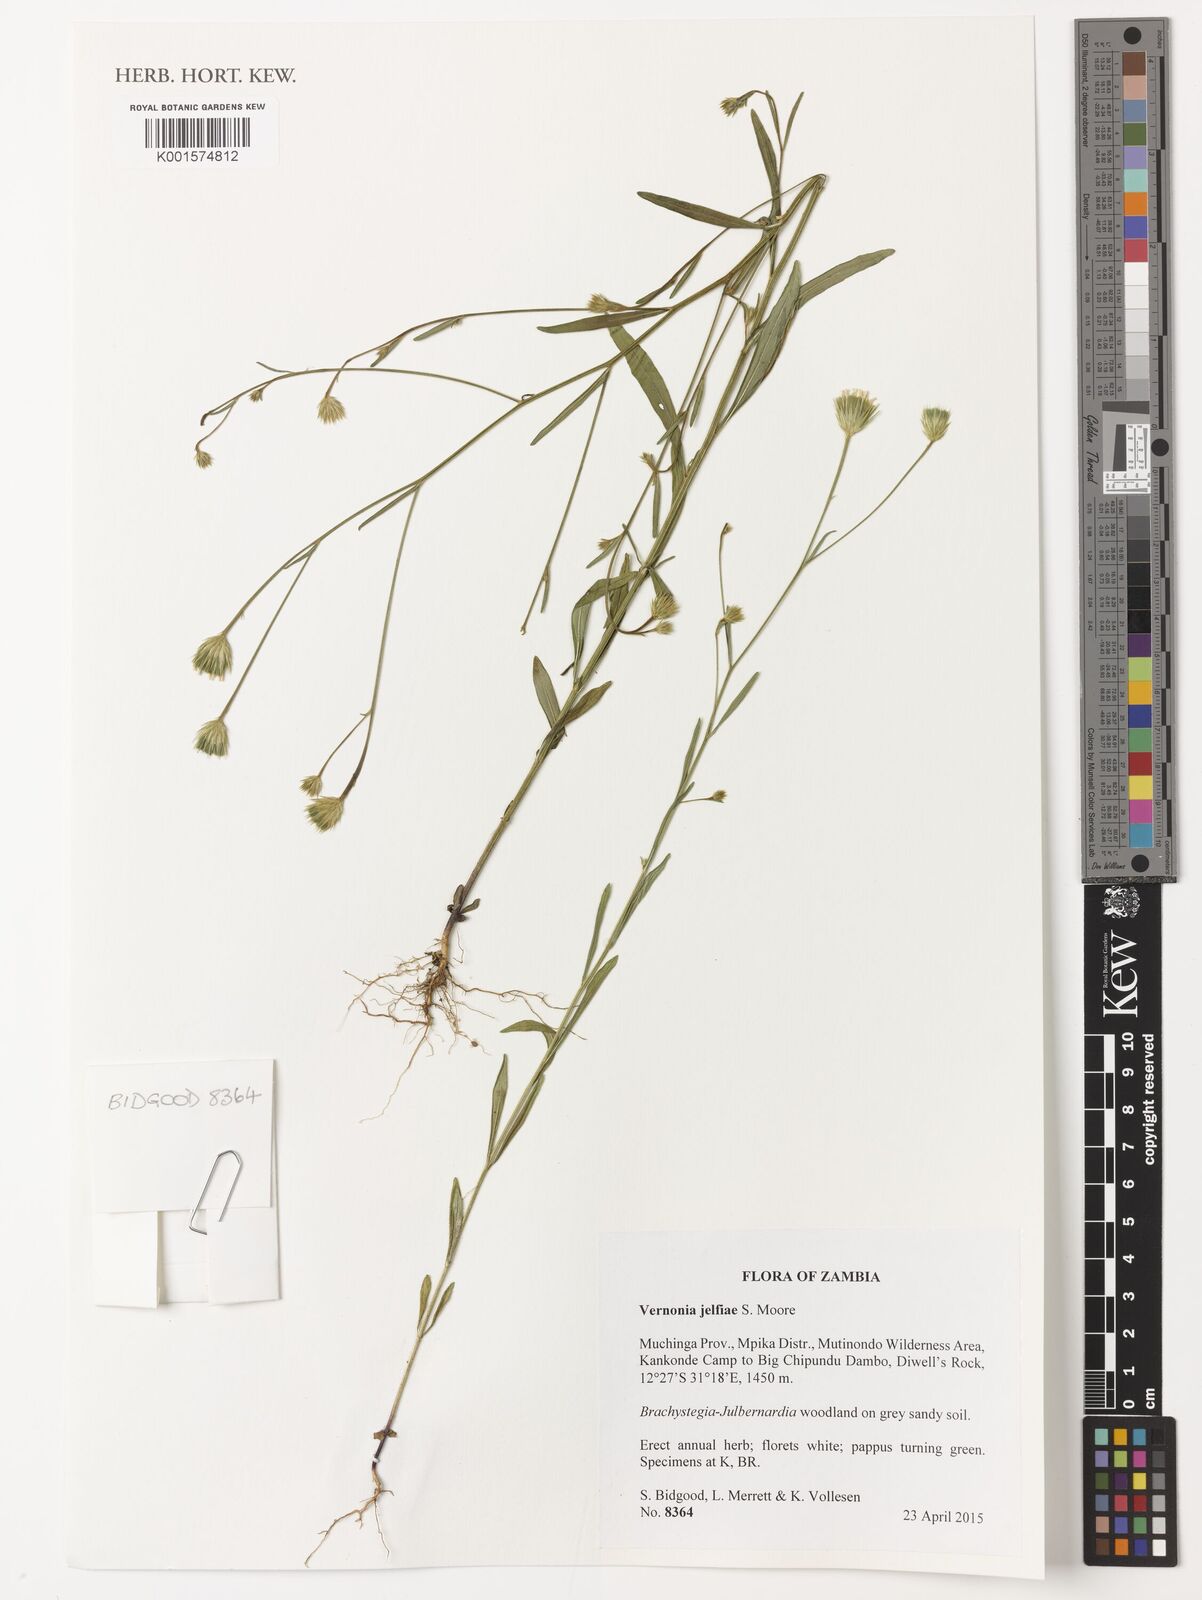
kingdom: Plantae
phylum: Tracheophyta
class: Magnoliopsida
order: Asterales
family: Asteraceae
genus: Crystallopollen
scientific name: Crystallopollen jelfiae
